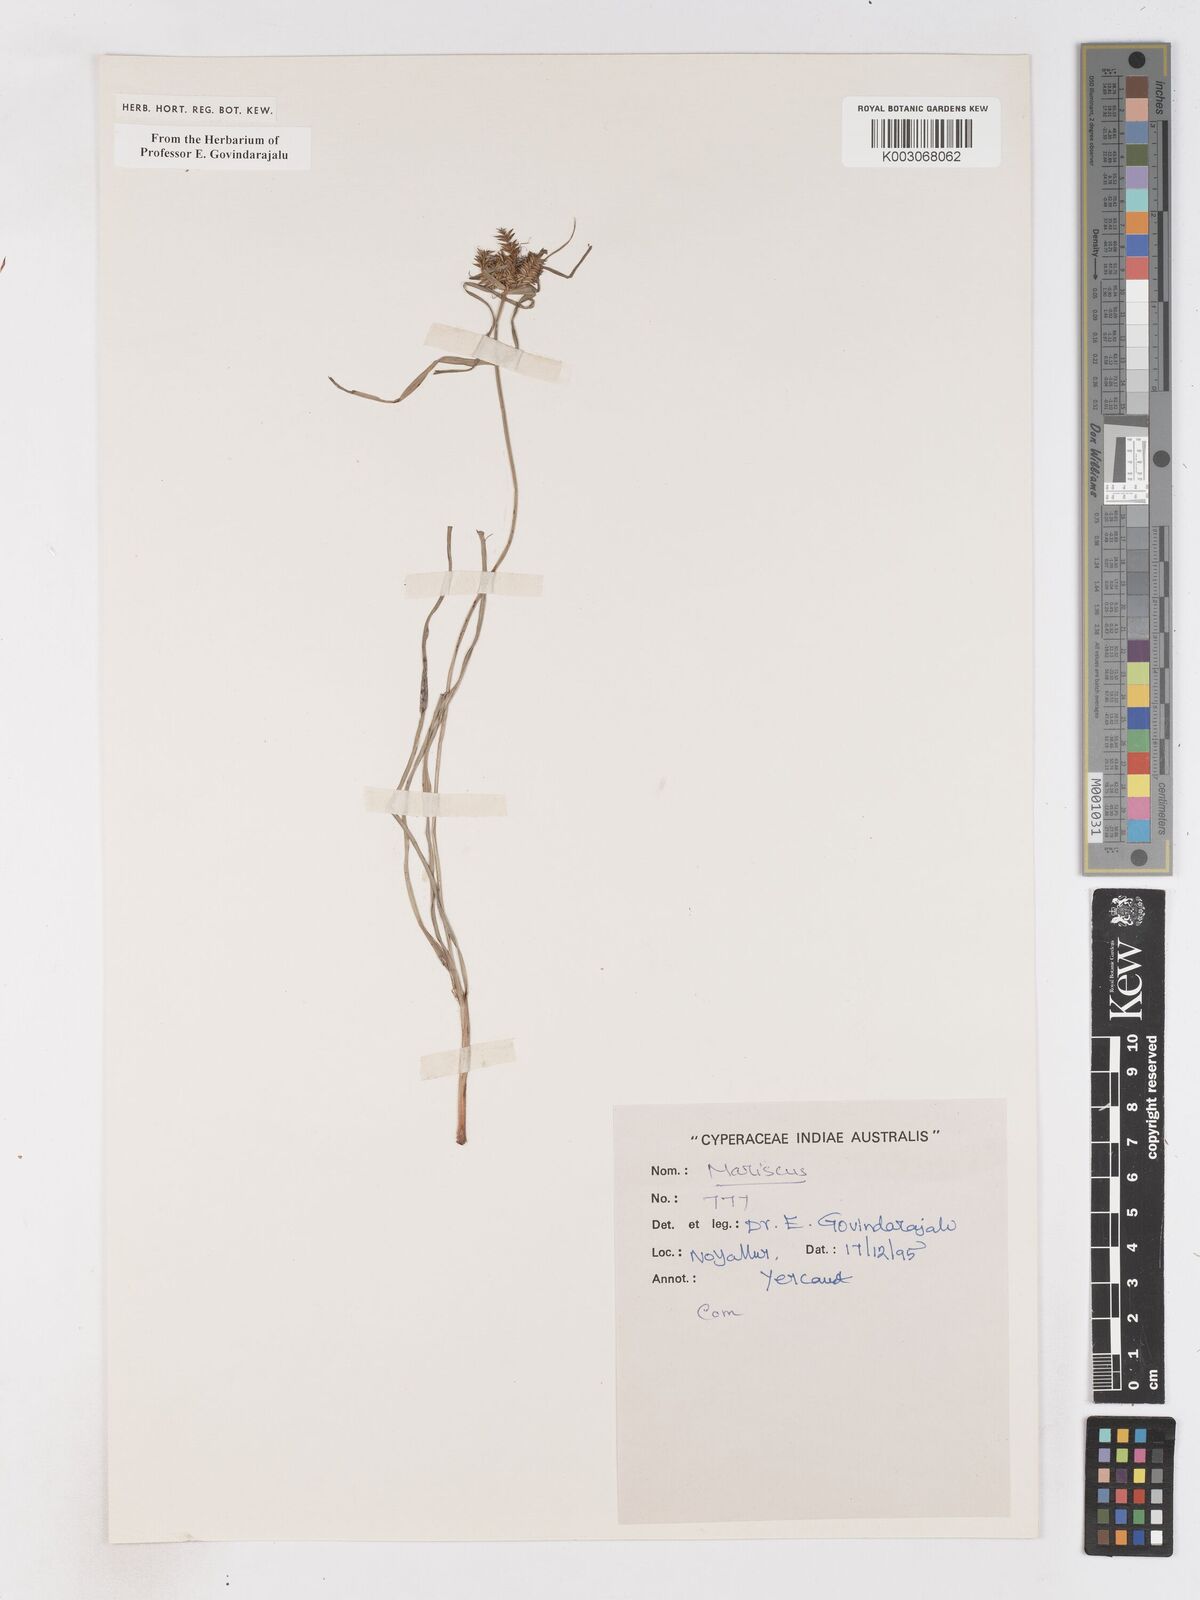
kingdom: Plantae
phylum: Tracheophyta
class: Liliopsida
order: Poales
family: Cyperaceae
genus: Cyperus
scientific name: Cyperus
